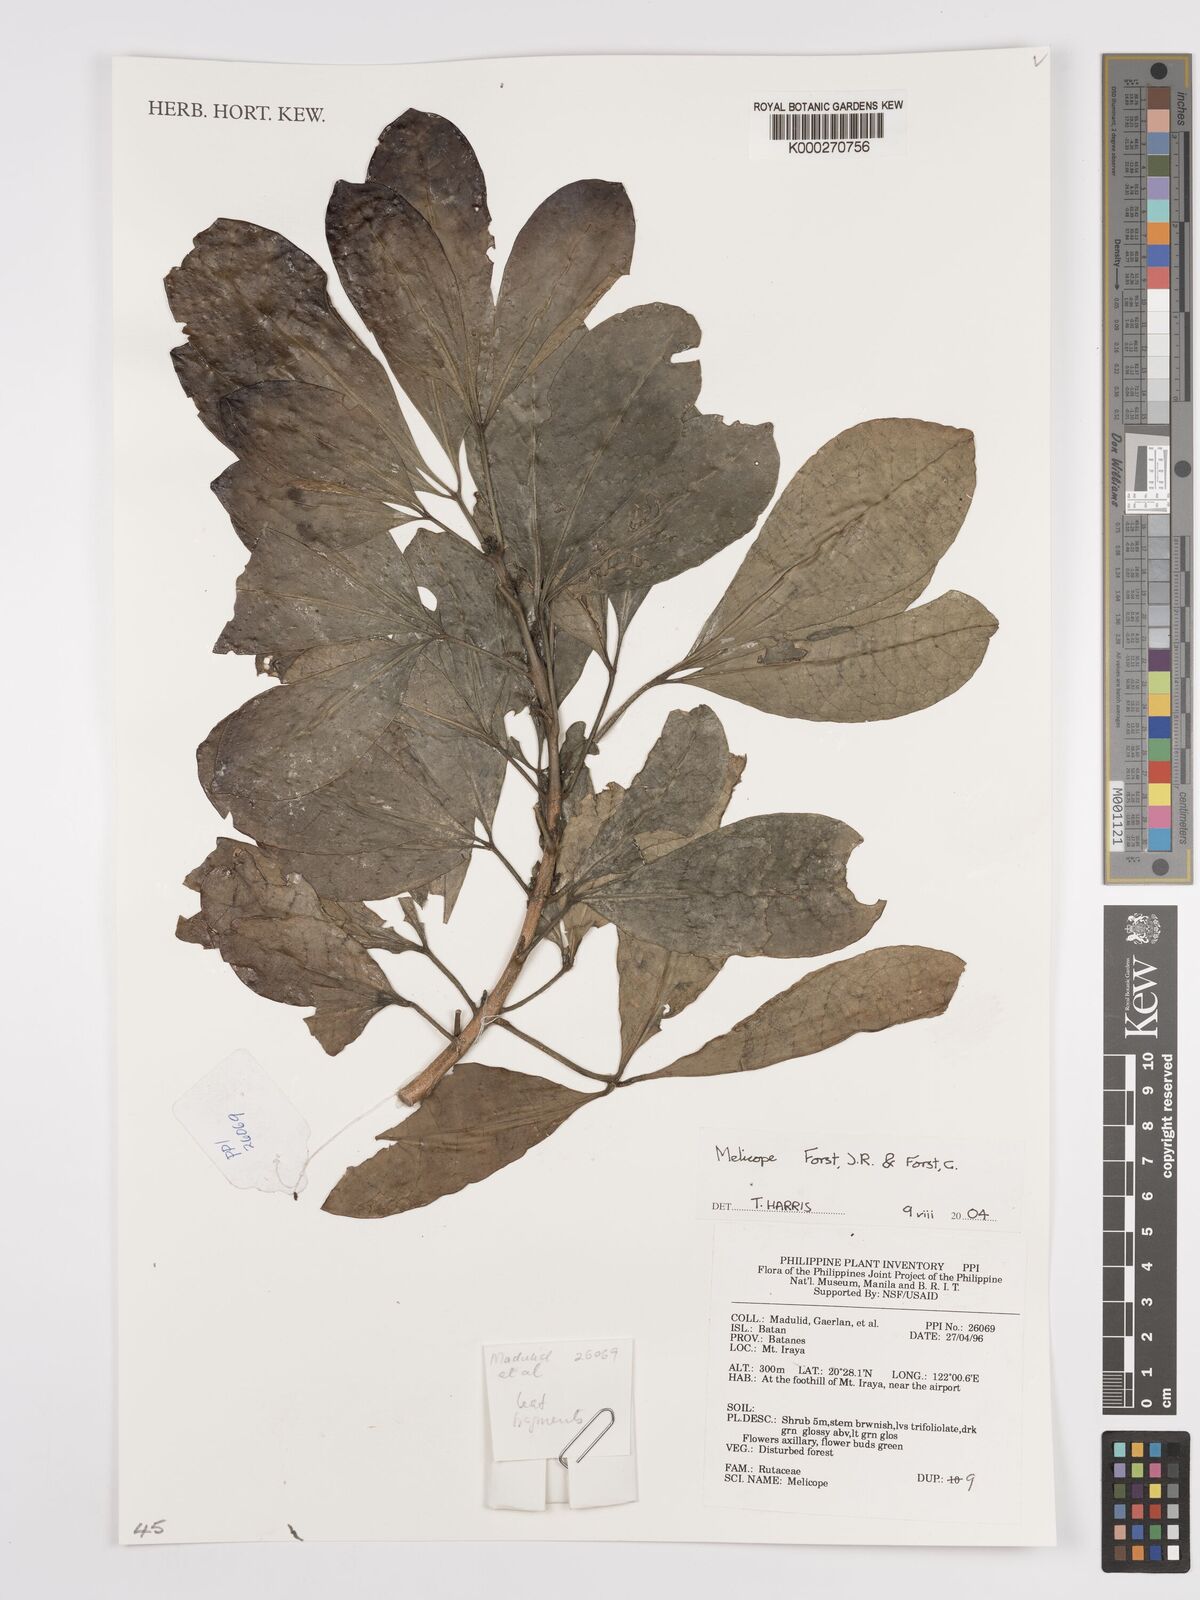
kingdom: Plantae
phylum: Tracheophyta
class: Magnoliopsida
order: Sapindales
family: Rutaceae
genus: Melicope
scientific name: Melicope
